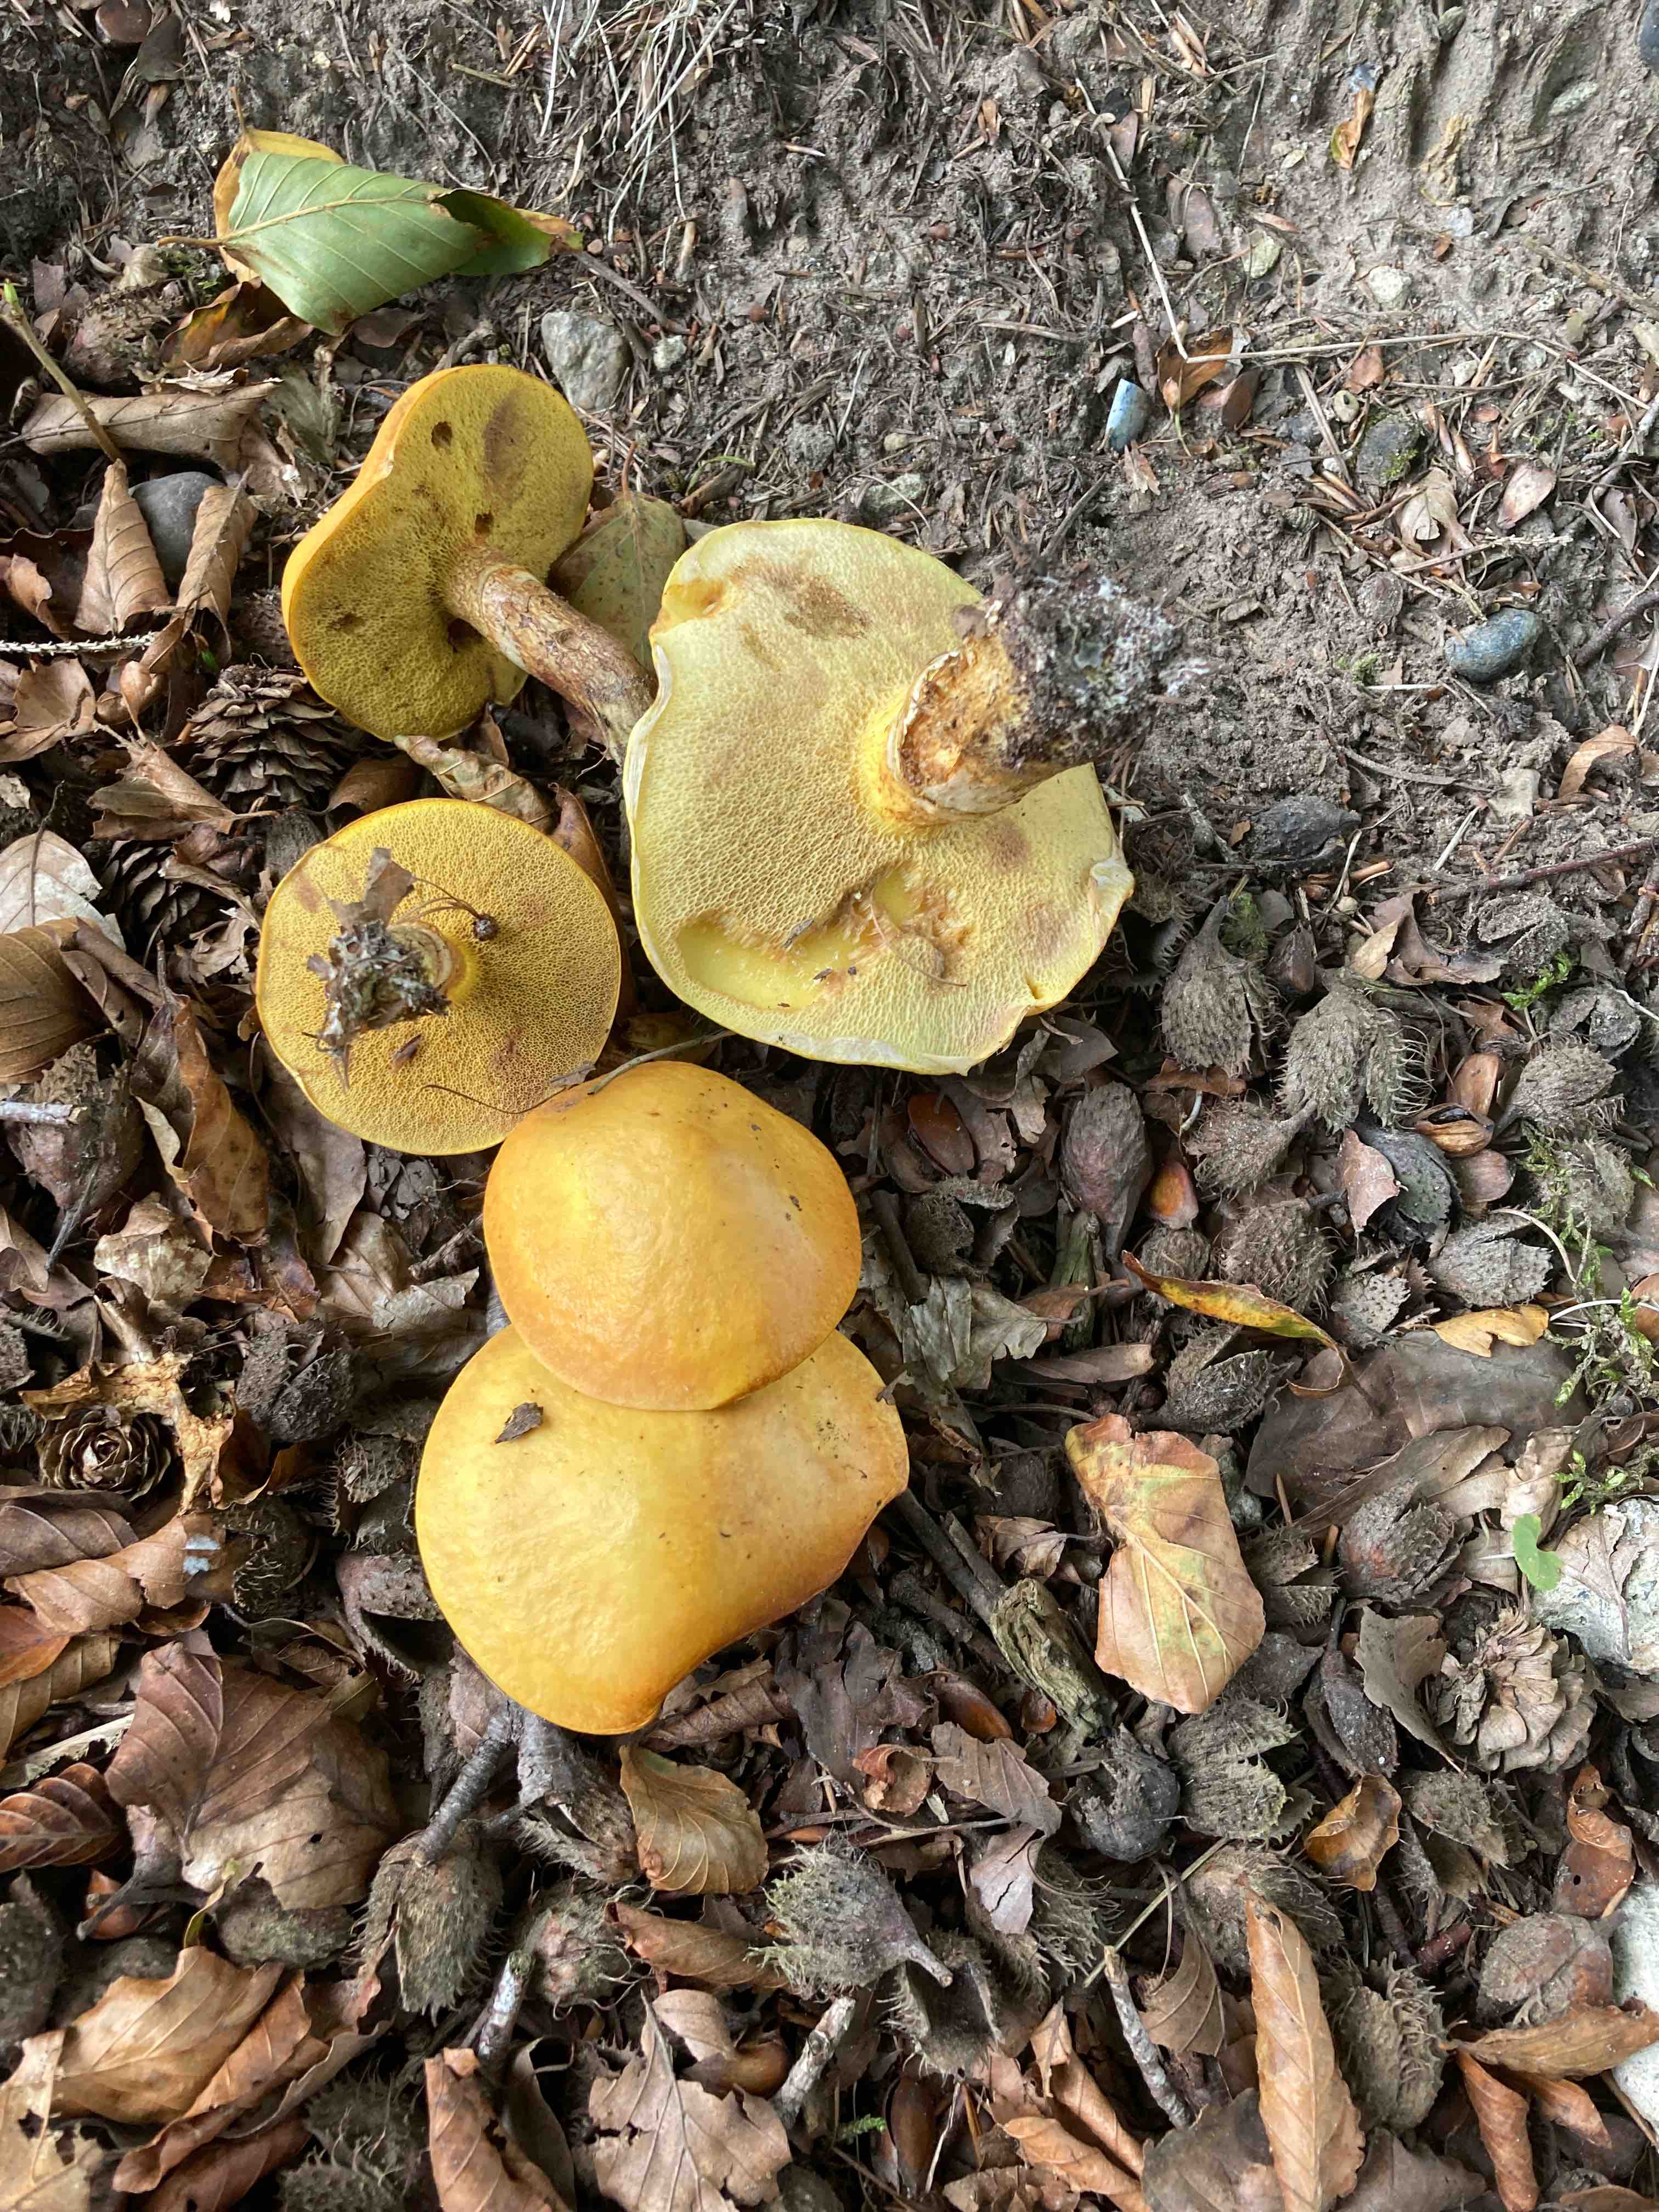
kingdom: Fungi
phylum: Basidiomycota
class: Agaricomycetes
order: Boletales
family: Suillaceae
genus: Suillus
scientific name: Suillus grevillei
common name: lærke-slimrørhat
